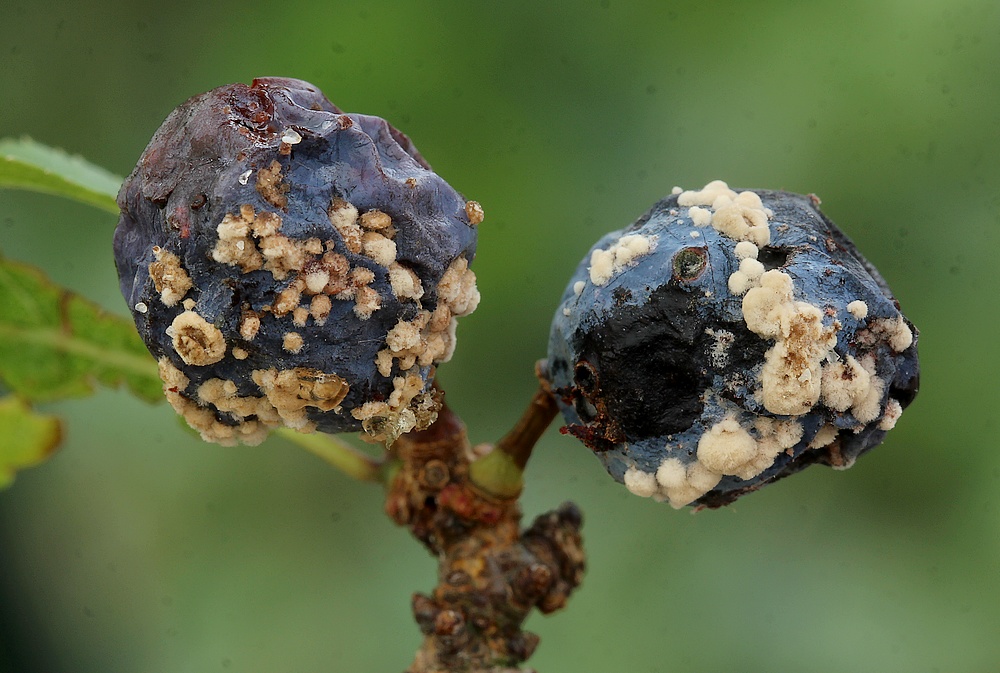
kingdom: Fungi
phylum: Ascomycota
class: Leotiomycetes
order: Helotiales
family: Sclerotiniaceae
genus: Monilinia
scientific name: Monilinia laxa
